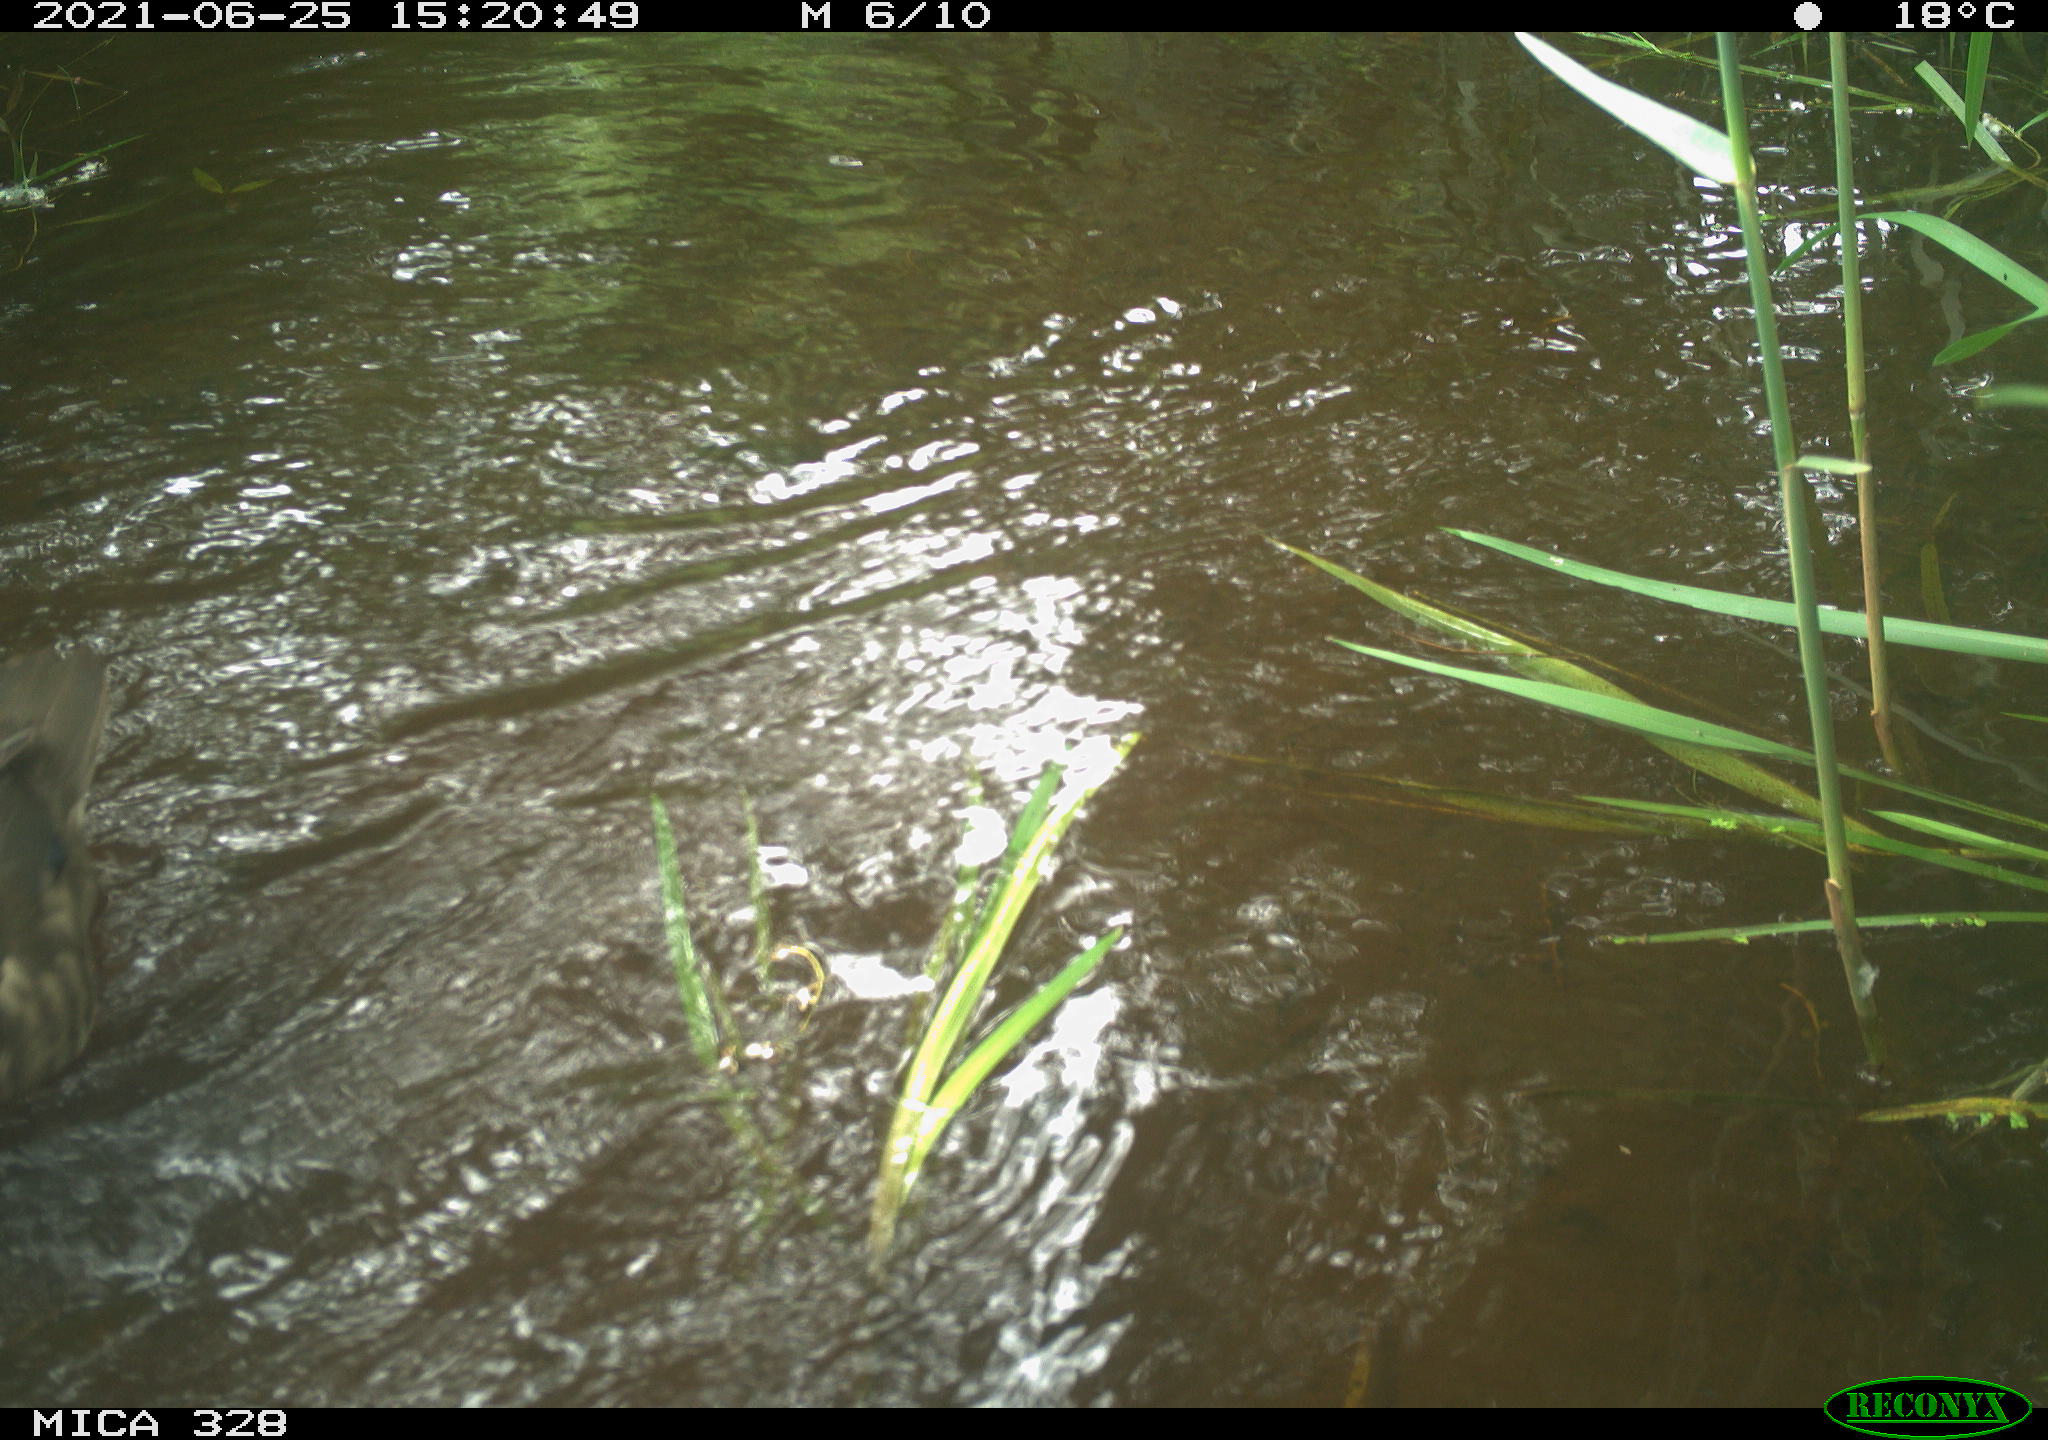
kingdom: Animalia
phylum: Chordata
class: Aves
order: Anseriformes
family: Anatidae
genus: Aix
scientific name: Aix galericulata
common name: Mandarin duck
